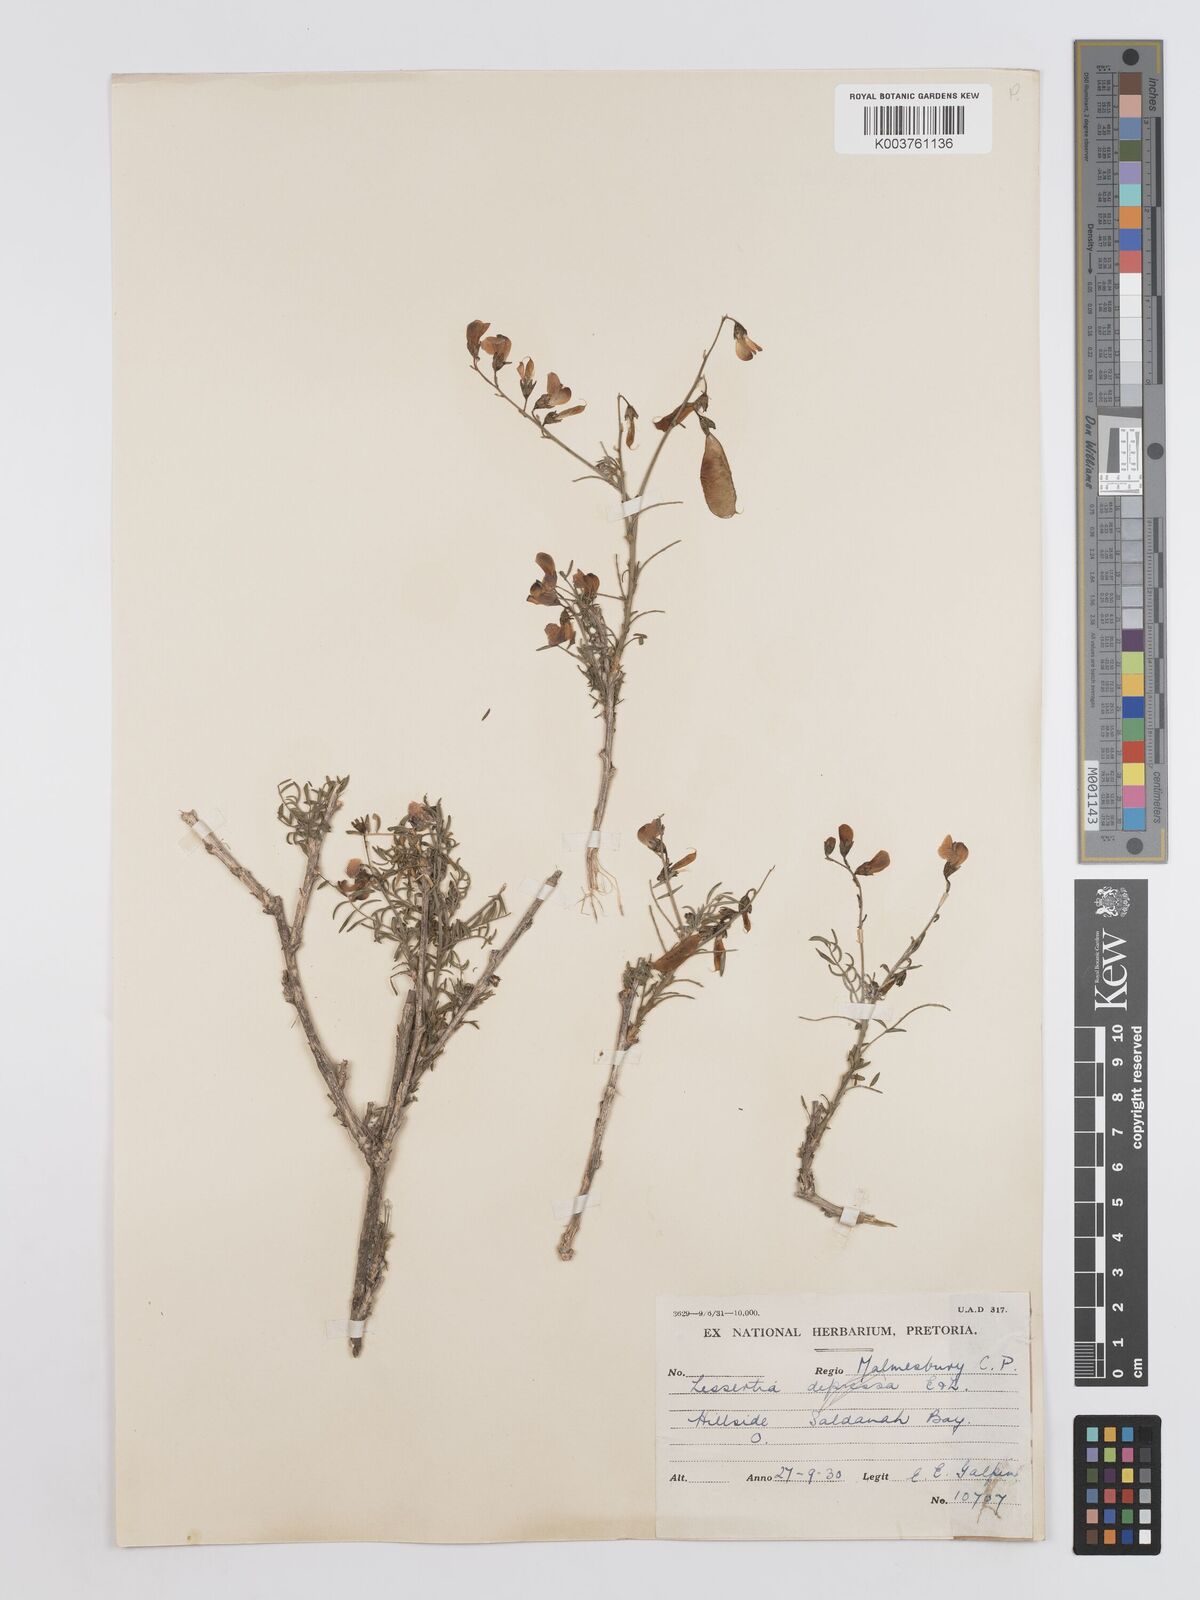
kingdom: Plantae
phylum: Tracheophyta
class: Magnoliopsida
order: Fabales
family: Fabaceae
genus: Lessertia
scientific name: Lessertia depressa
